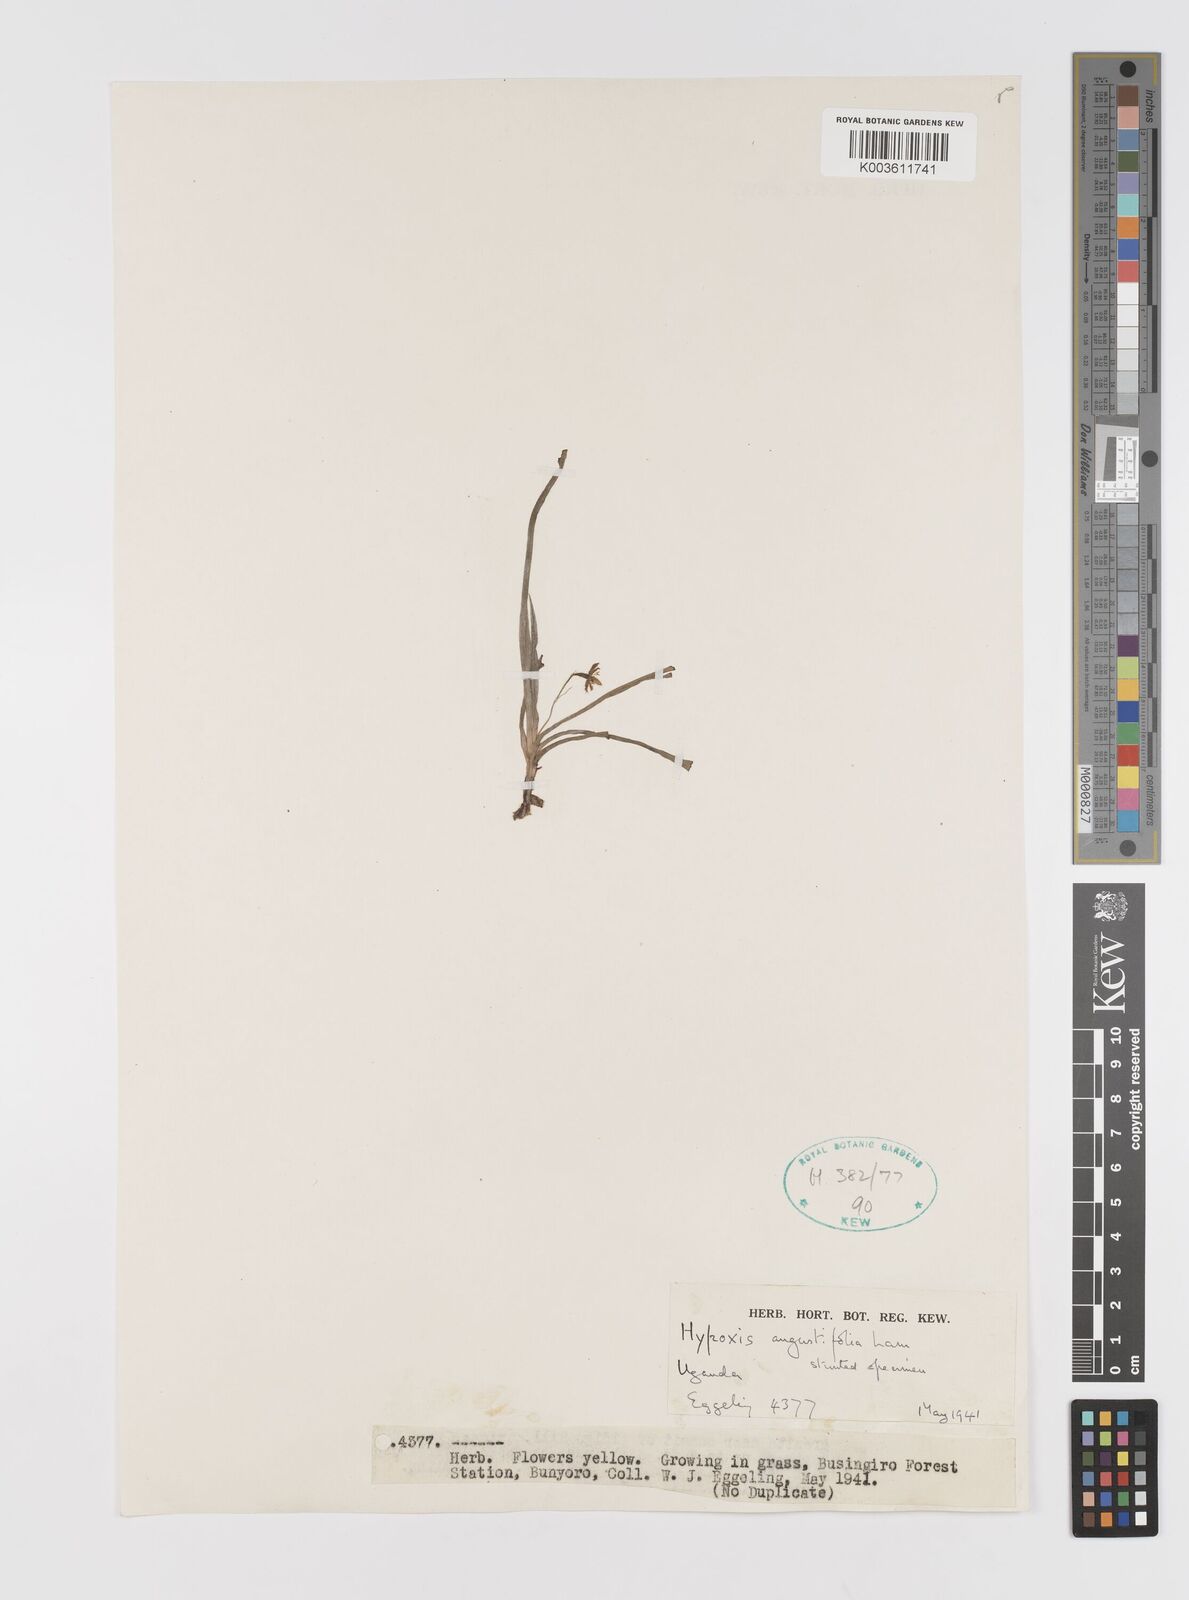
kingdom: Plantae
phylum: Tracheophyta
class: Liliopsida
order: Asparagales
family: Hypoxidaceae
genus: Hypoxis
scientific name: Hypoxis angustifolia
